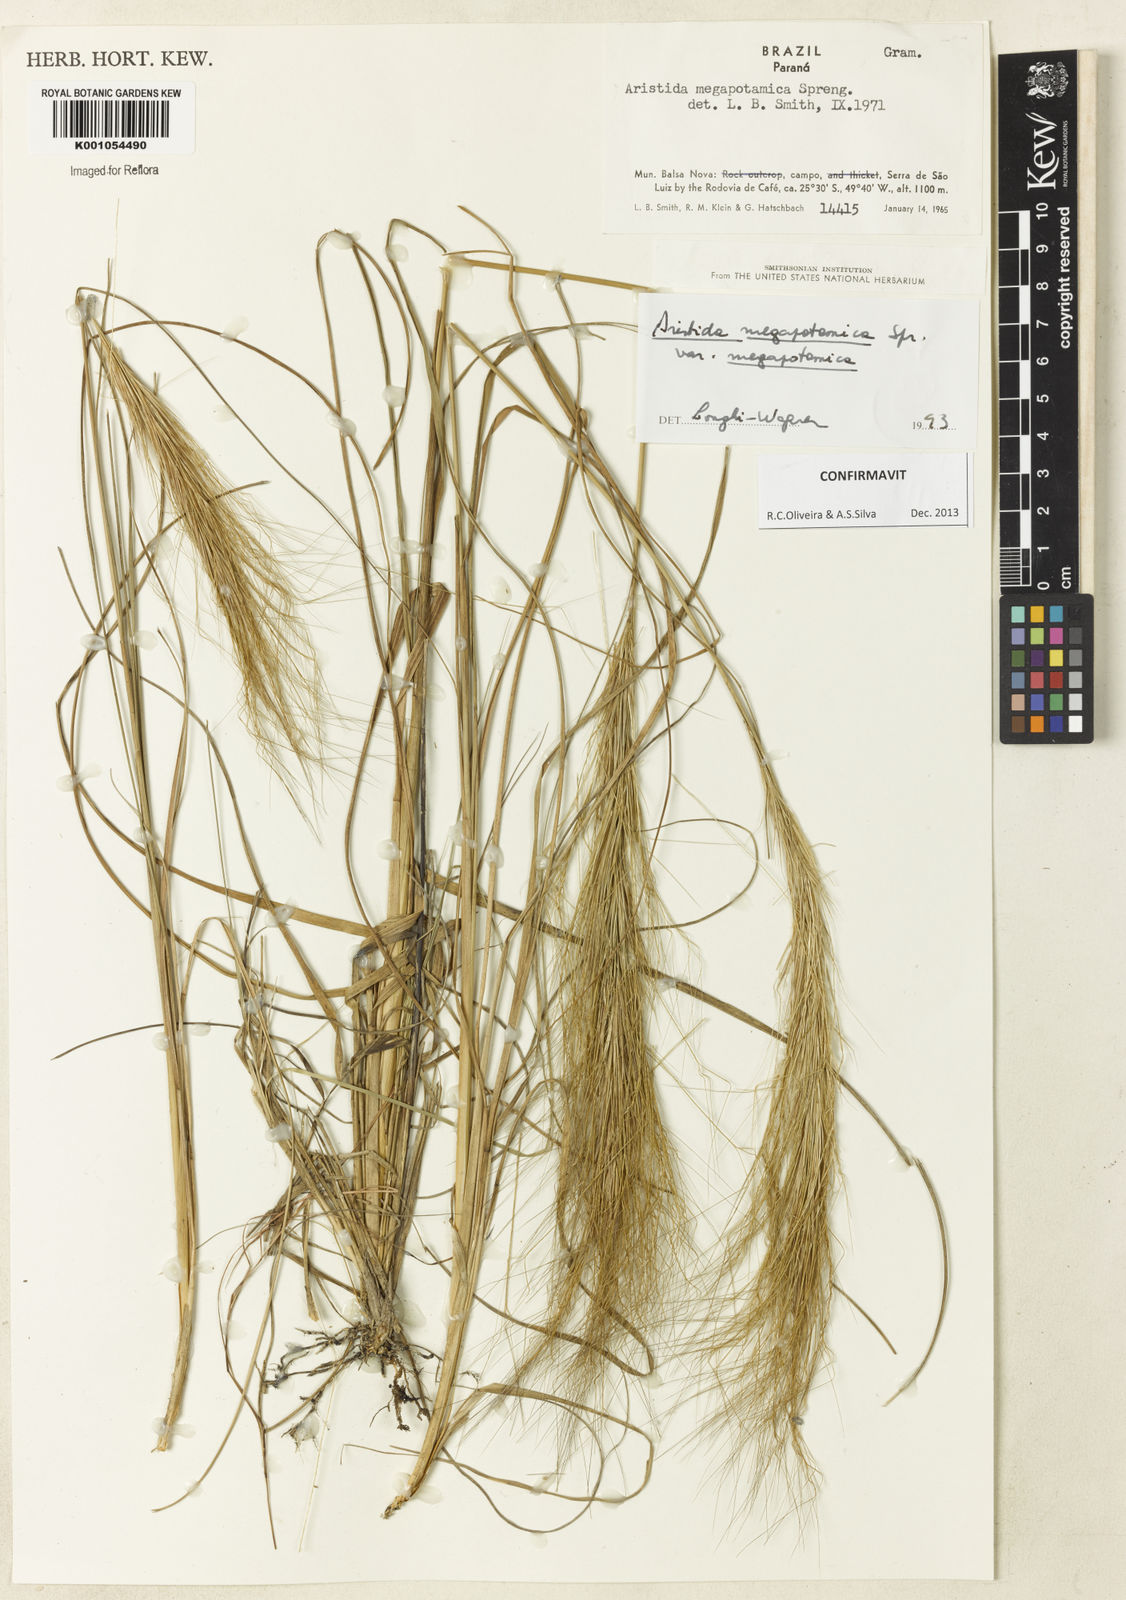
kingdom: Plantae
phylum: Tracheophyta
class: Liliopsida
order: Poales
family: Poaceae
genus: Aristida
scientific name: Aristida megapotamica
